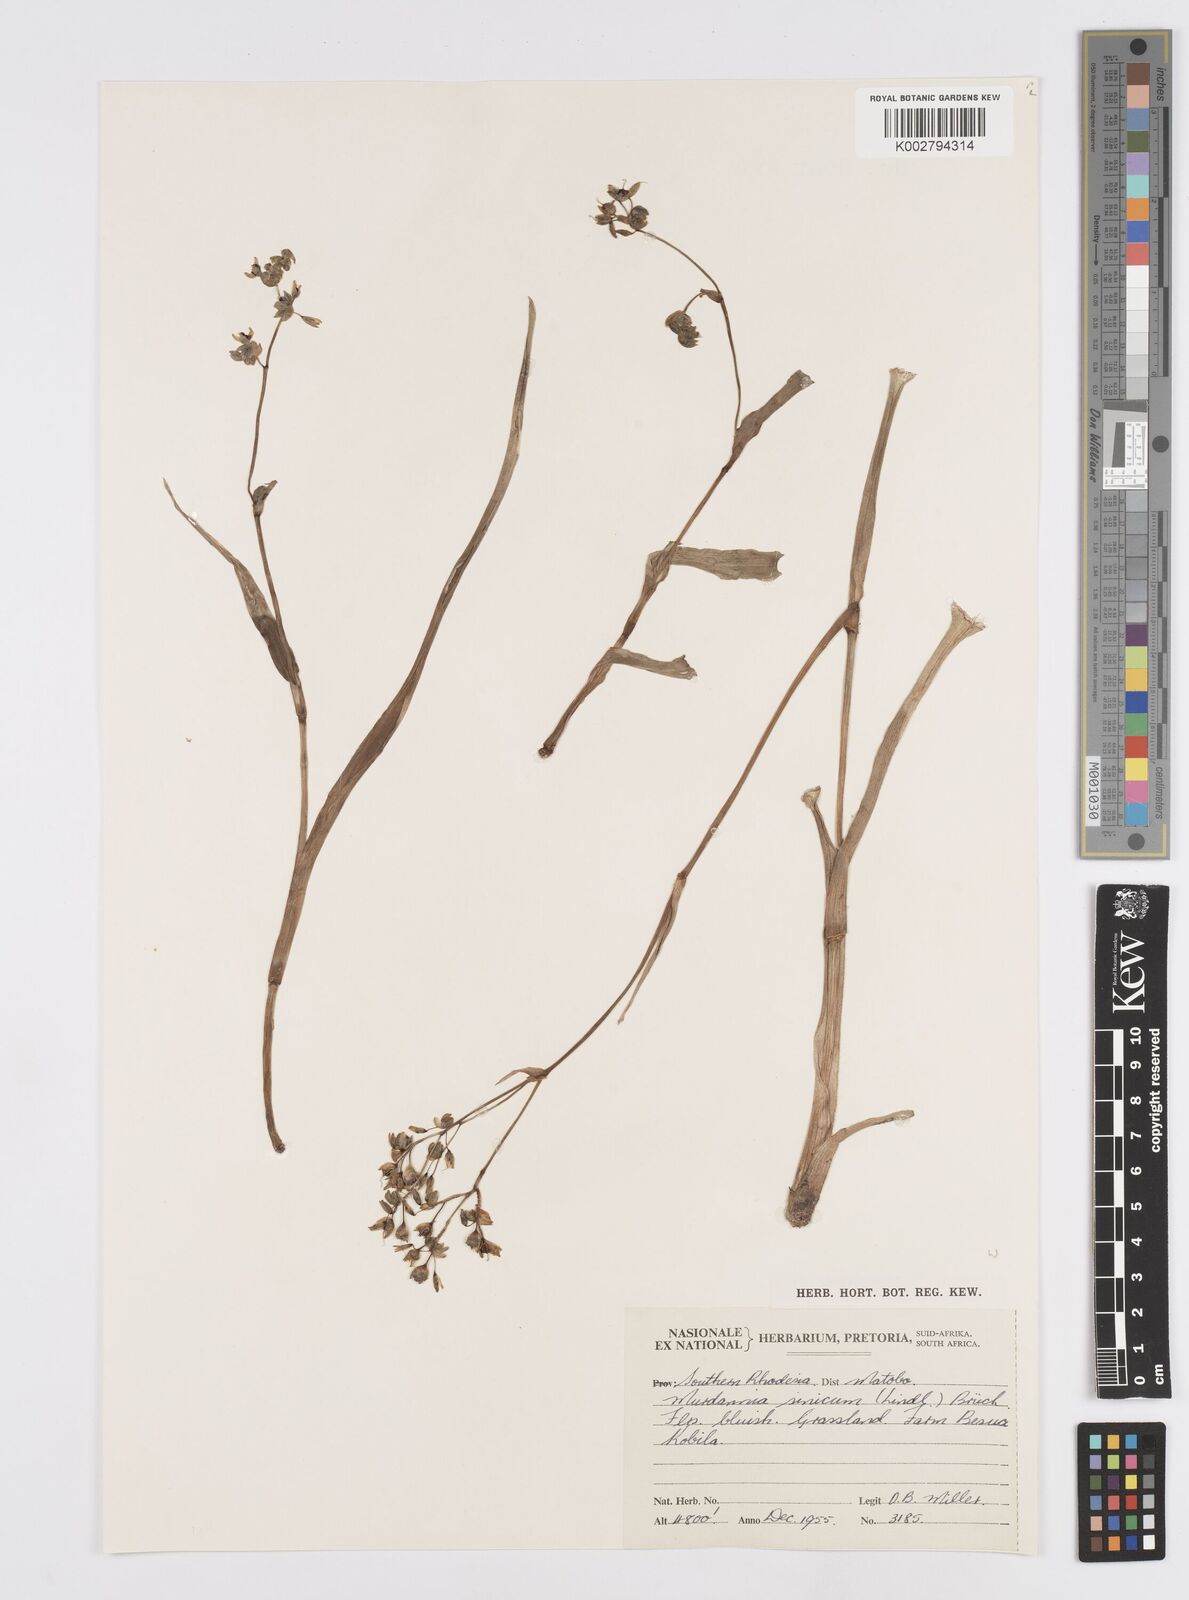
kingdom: Plantae
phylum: Tracheophyta
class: Liliopsida
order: Commelinales
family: Commelinaceae
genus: Murdannia
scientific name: Murdannia simplex
